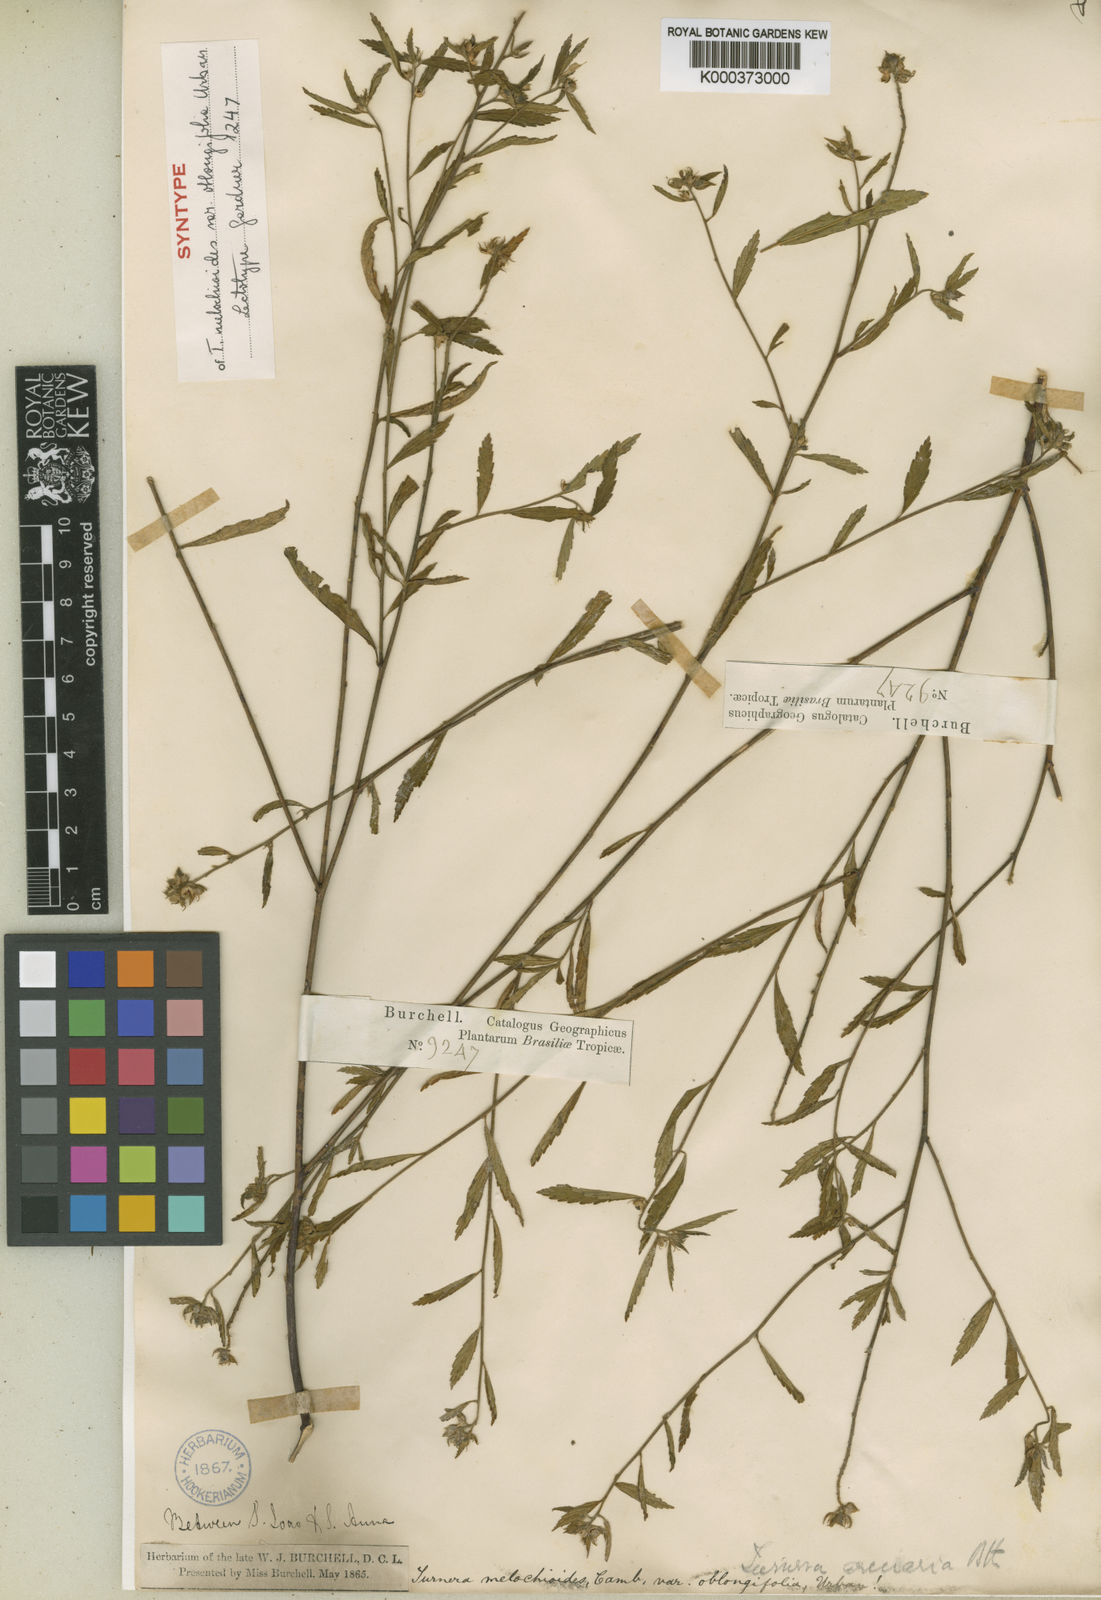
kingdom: Plantae
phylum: Tracheophyta
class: Magnoliopsida
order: Malpighiales
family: Turneraceae
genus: Turnera
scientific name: Turnera arenaria
